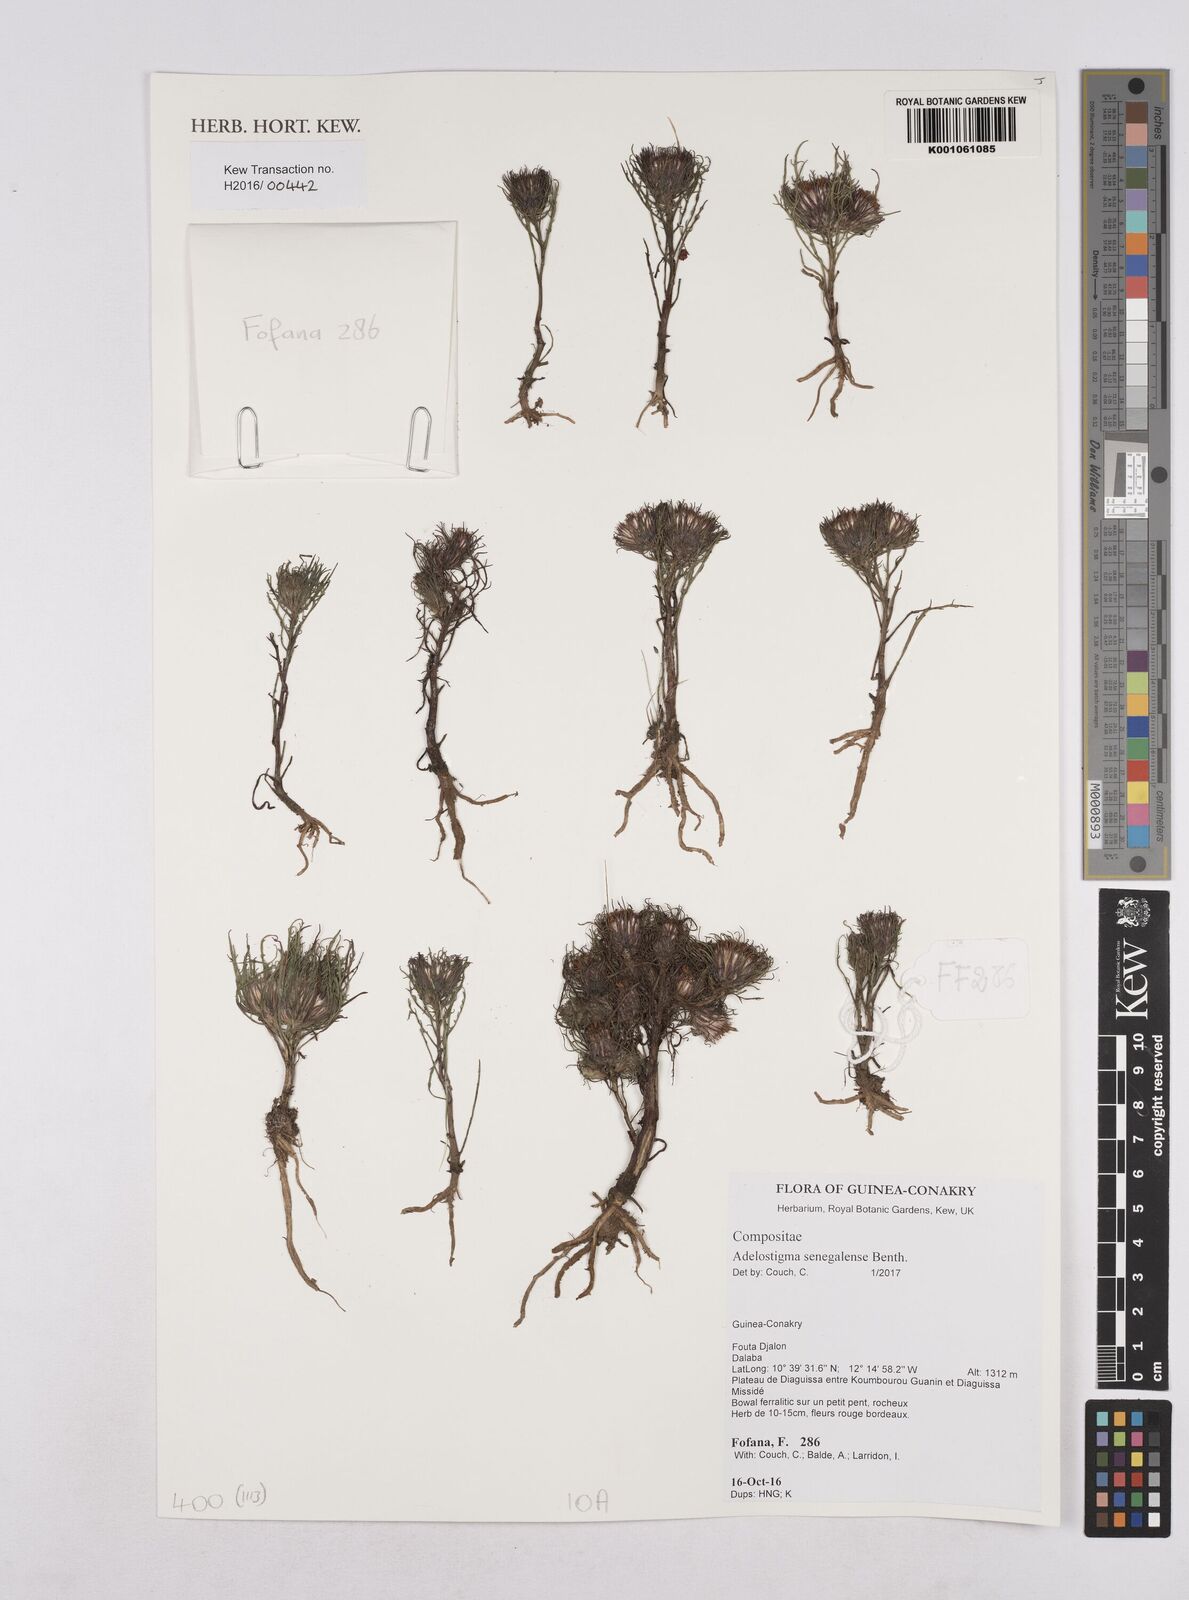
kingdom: Plantae
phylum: Tracheophyta
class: Magnoliopsida
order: Asterales
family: Asteraceae
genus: Adelostigma
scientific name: Adelostigma senegalensis
